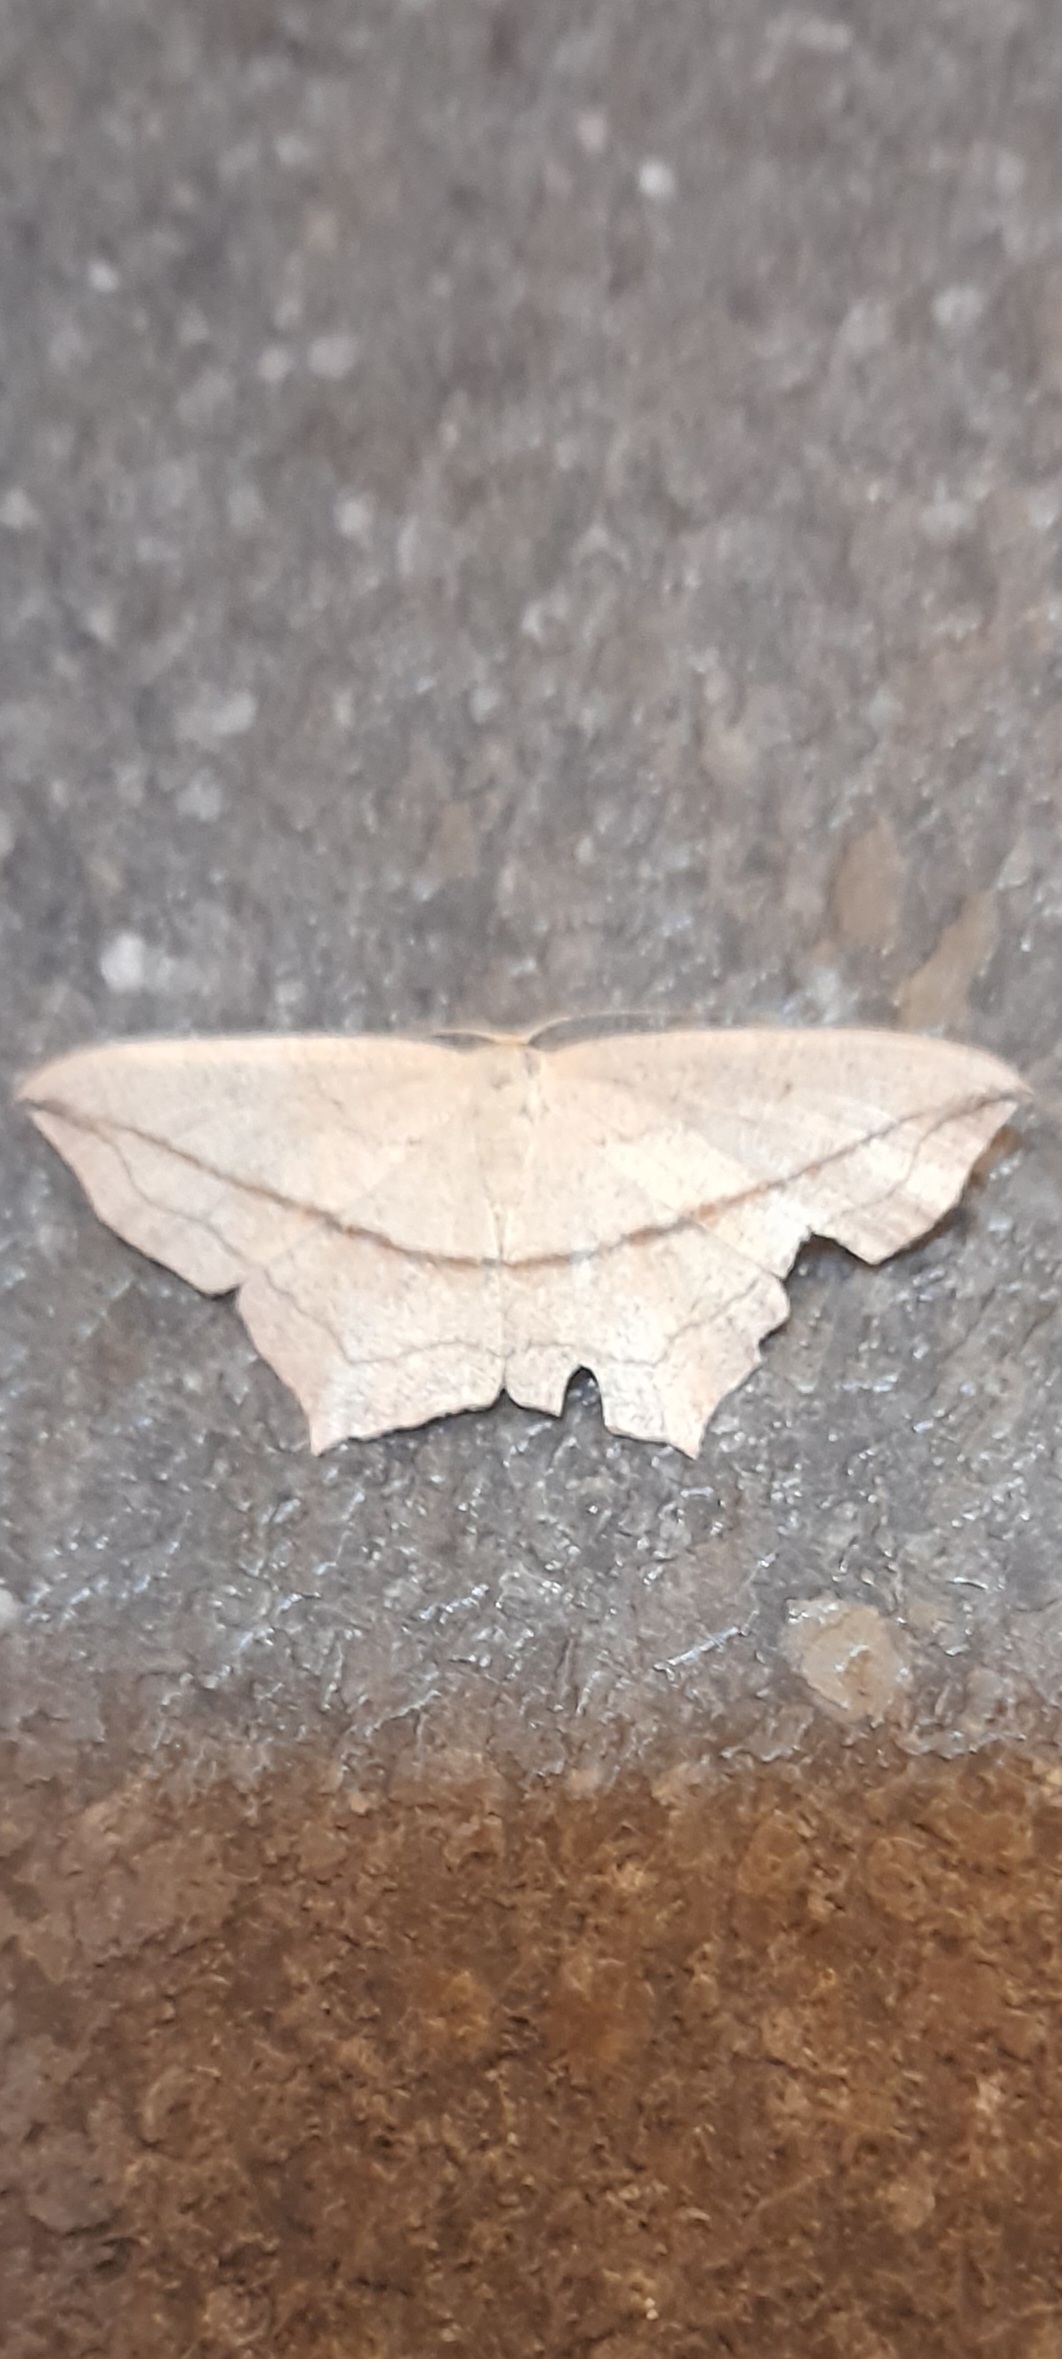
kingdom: Animalia
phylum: Arthropoda
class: Insecta
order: Lepidoptera
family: Geometridae
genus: Timandra
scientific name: Timandra comae
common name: Gul syremåler
